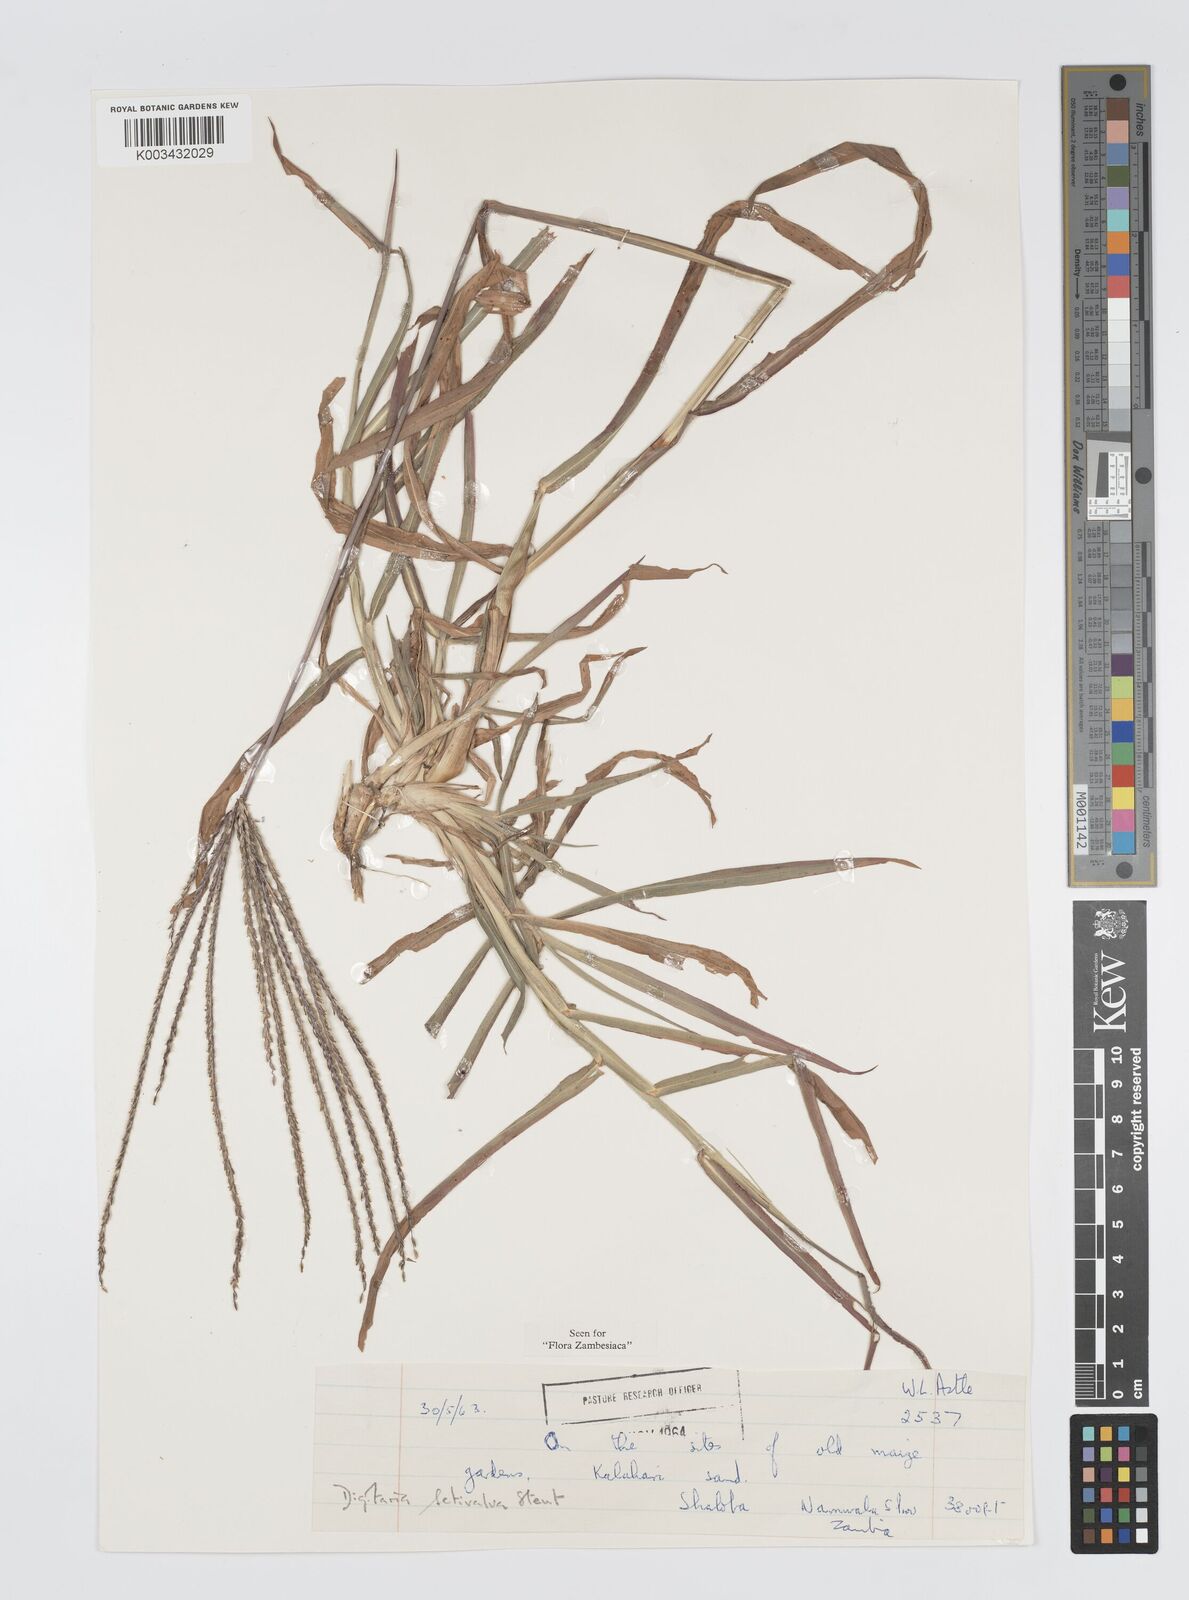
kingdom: Plantae
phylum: Tracheophyta
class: Liliopsida
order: Poales
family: Poaceae
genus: Digitaria
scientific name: Digitaria milanjiana
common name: Madagascar crabgrass
